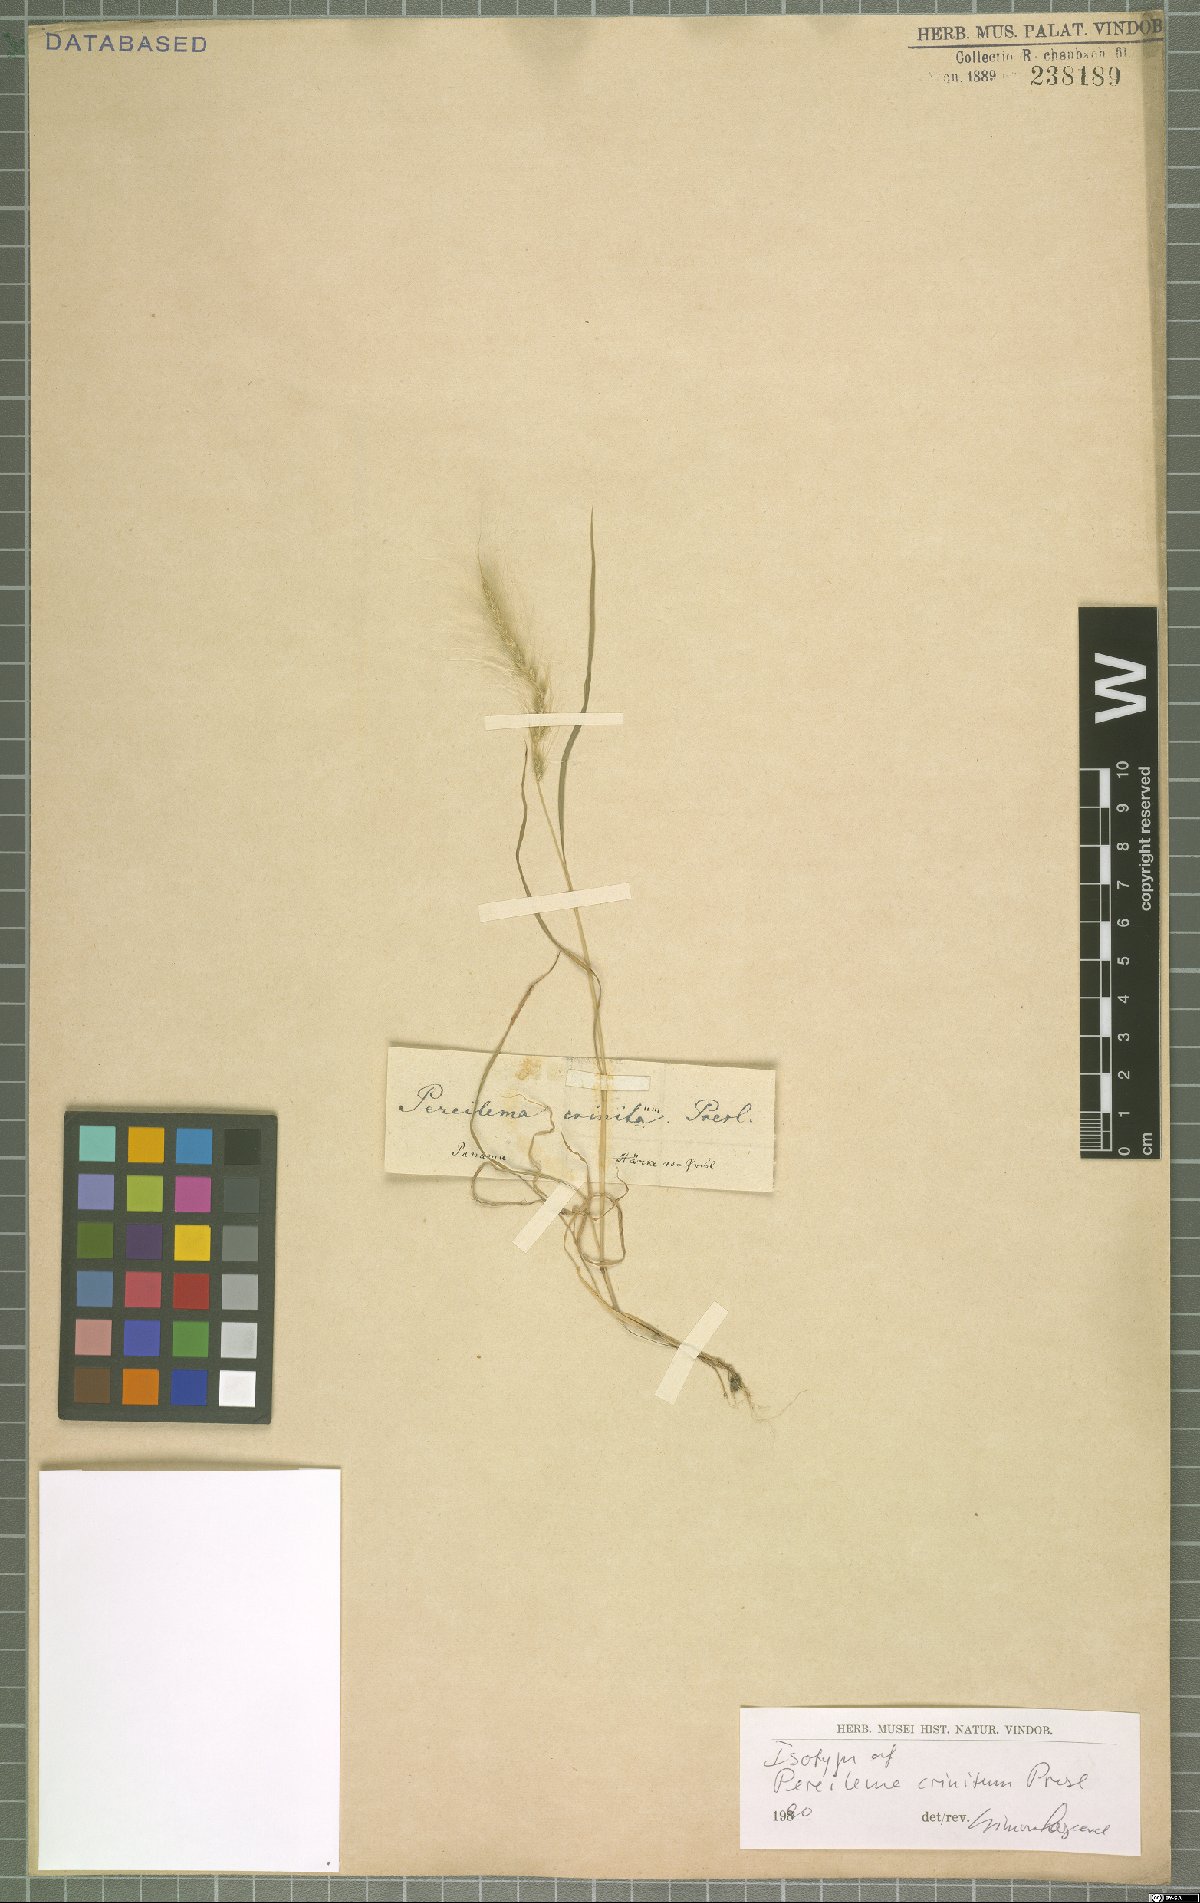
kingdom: Plantae
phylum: Tracheophyta
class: Liliopsida
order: Poales
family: Poaceae
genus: Muhlenbergia
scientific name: Muhlenbergia pereilema
